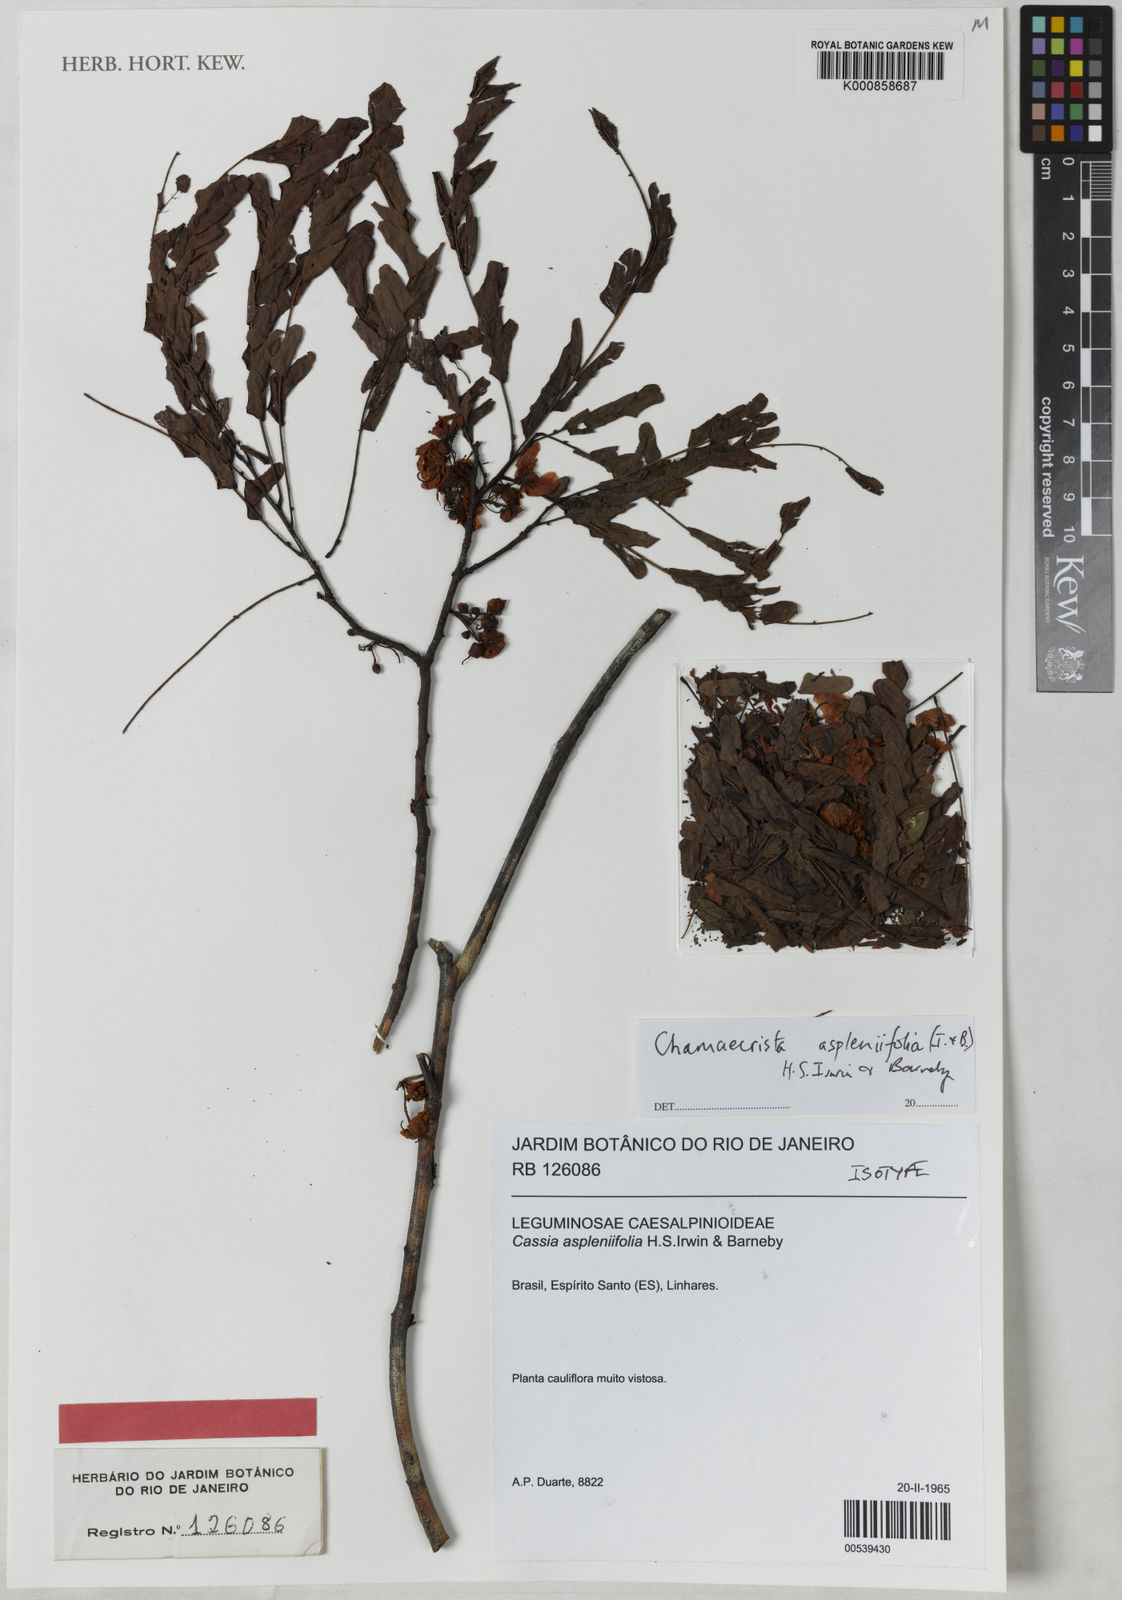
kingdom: Plantae
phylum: Tracheophyta
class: Magnoliopsida
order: Fabales
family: Fabaceae
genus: Chamaecrista
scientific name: Chamaecrista aspleniifolia
